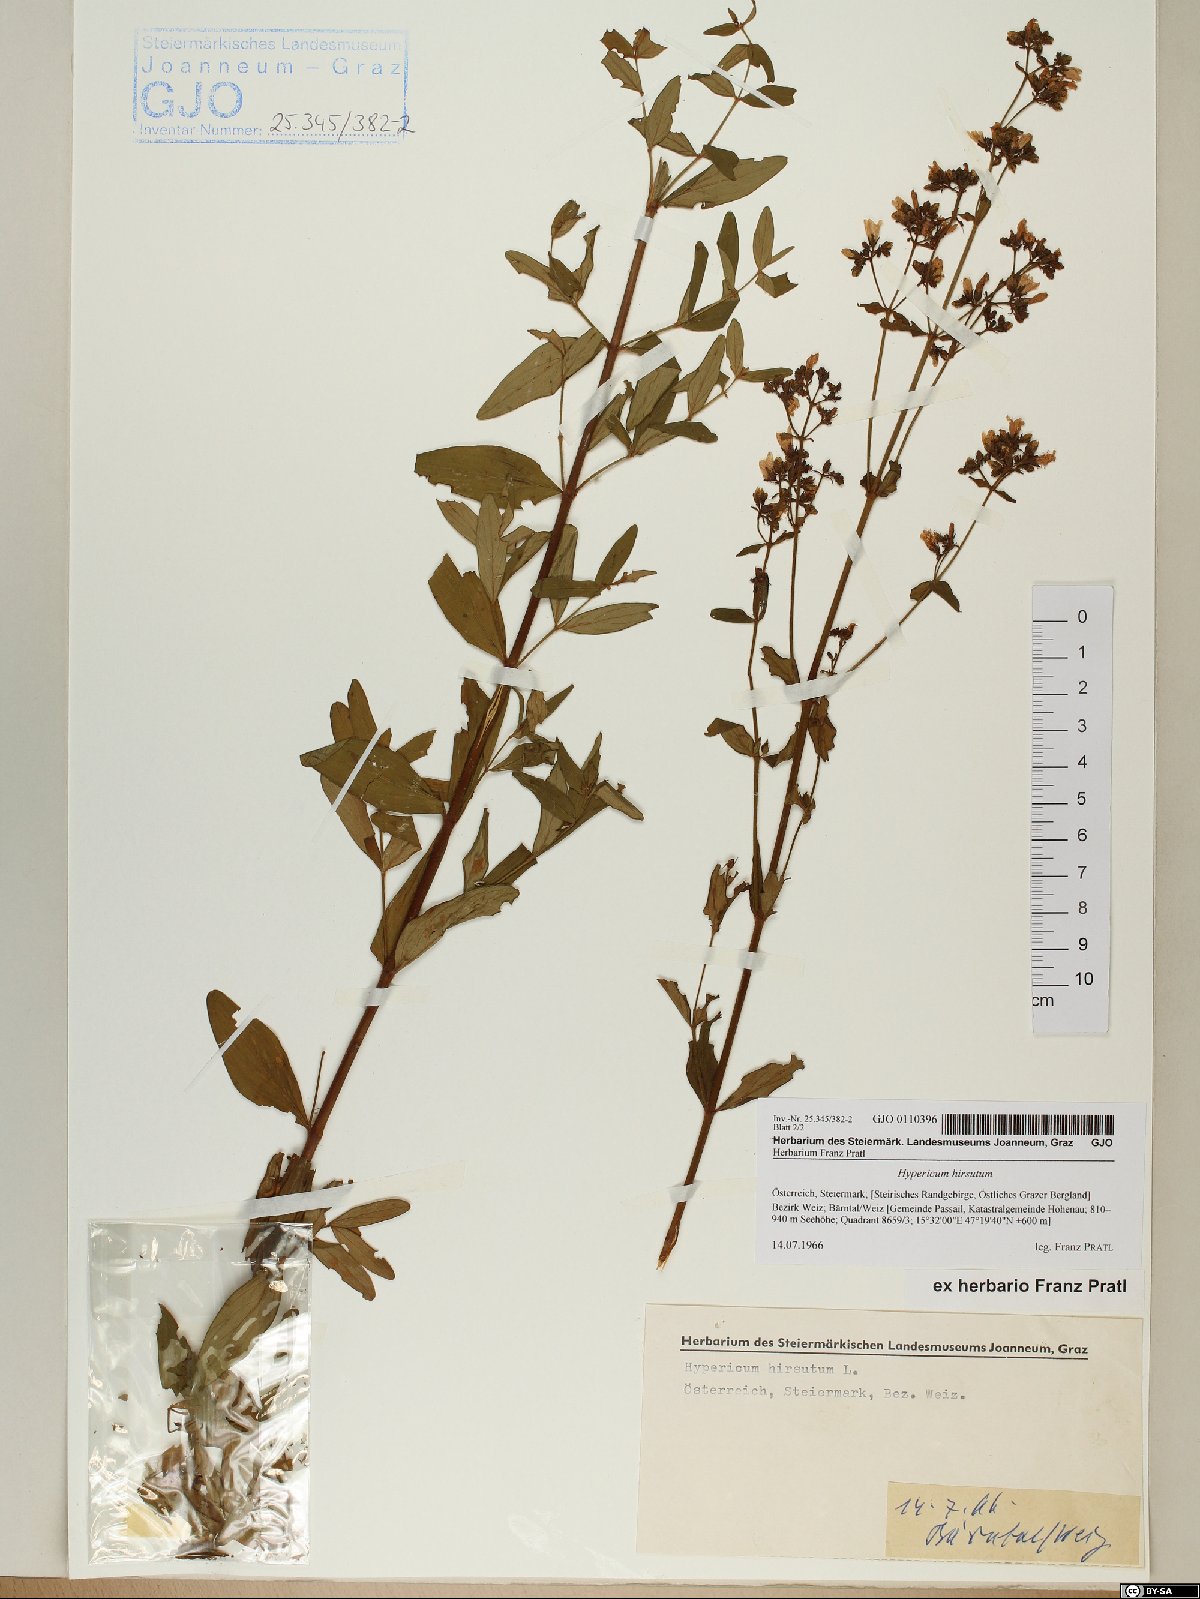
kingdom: Plantae
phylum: Tracheophyta
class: Magnoliopsida
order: Malpighiales
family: Hypericaceae
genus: Hypericum
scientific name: Hypericum hirsutum
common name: Hairy st. john's-wort
